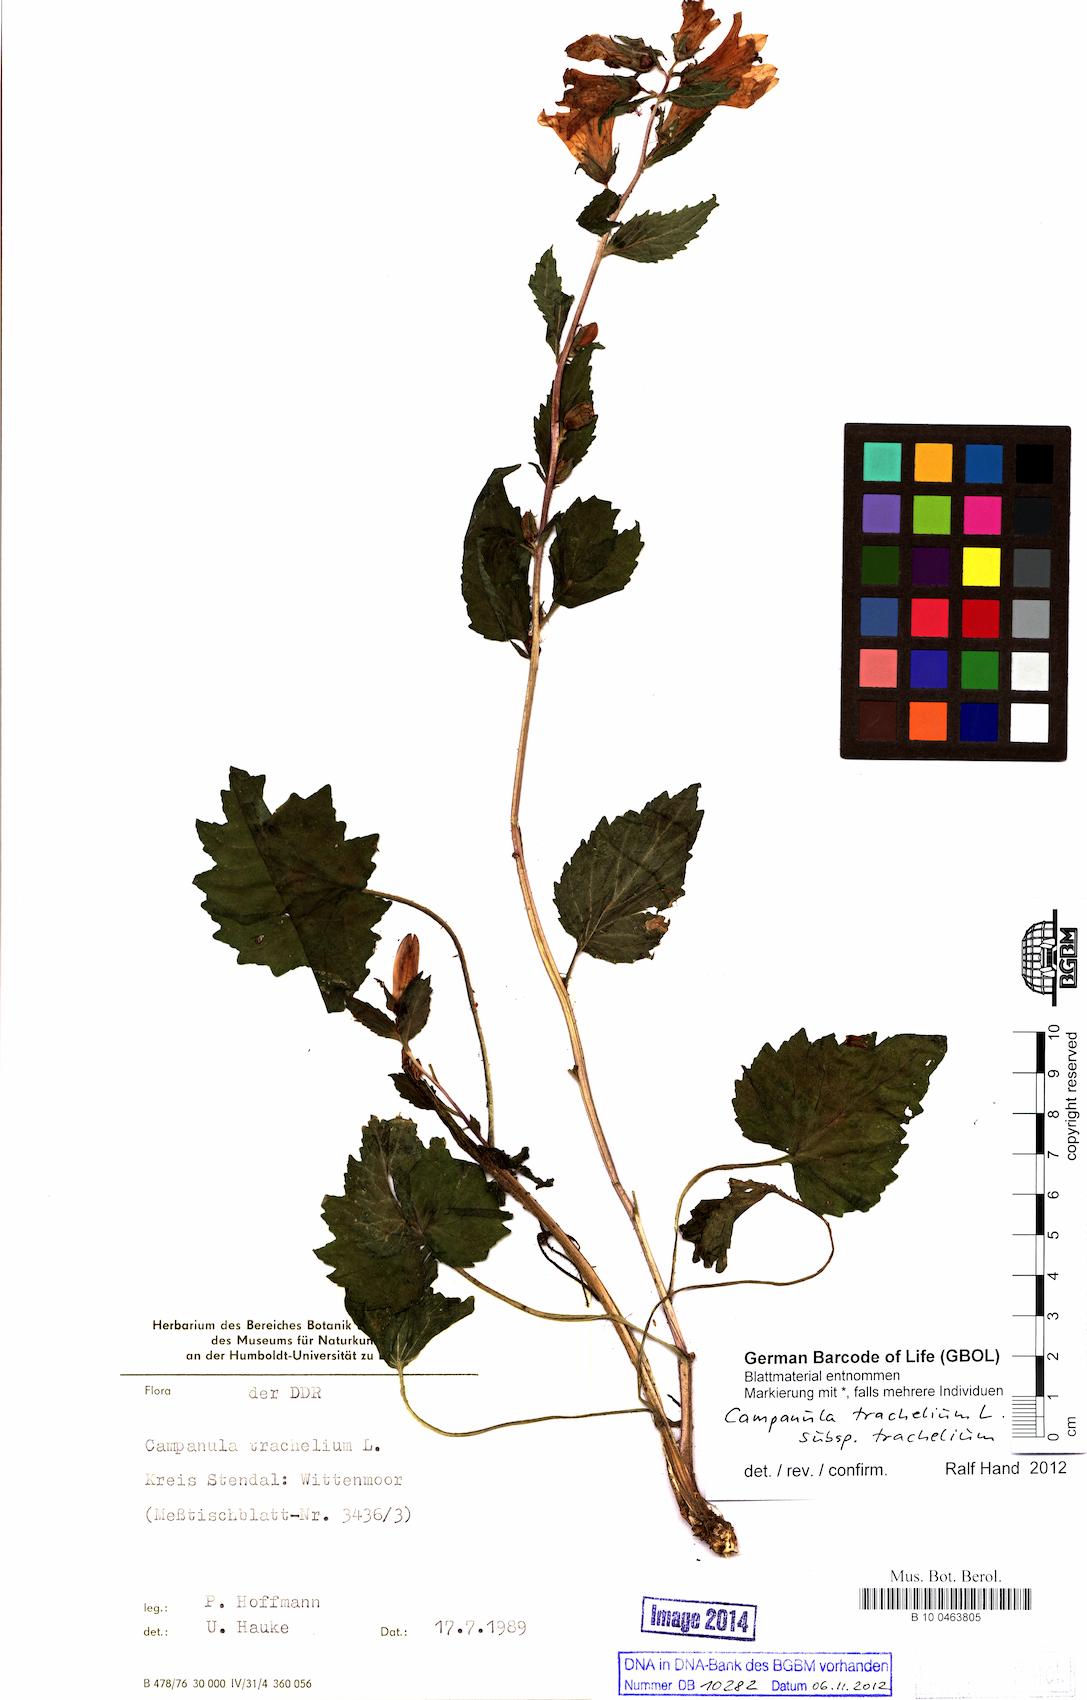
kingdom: Plantae
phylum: Tracheophyta
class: Magnoliopsida
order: Asterales
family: Campanulaceae
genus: Campanula
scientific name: Campanula trachelium
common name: Nettle-leaved bellflower
